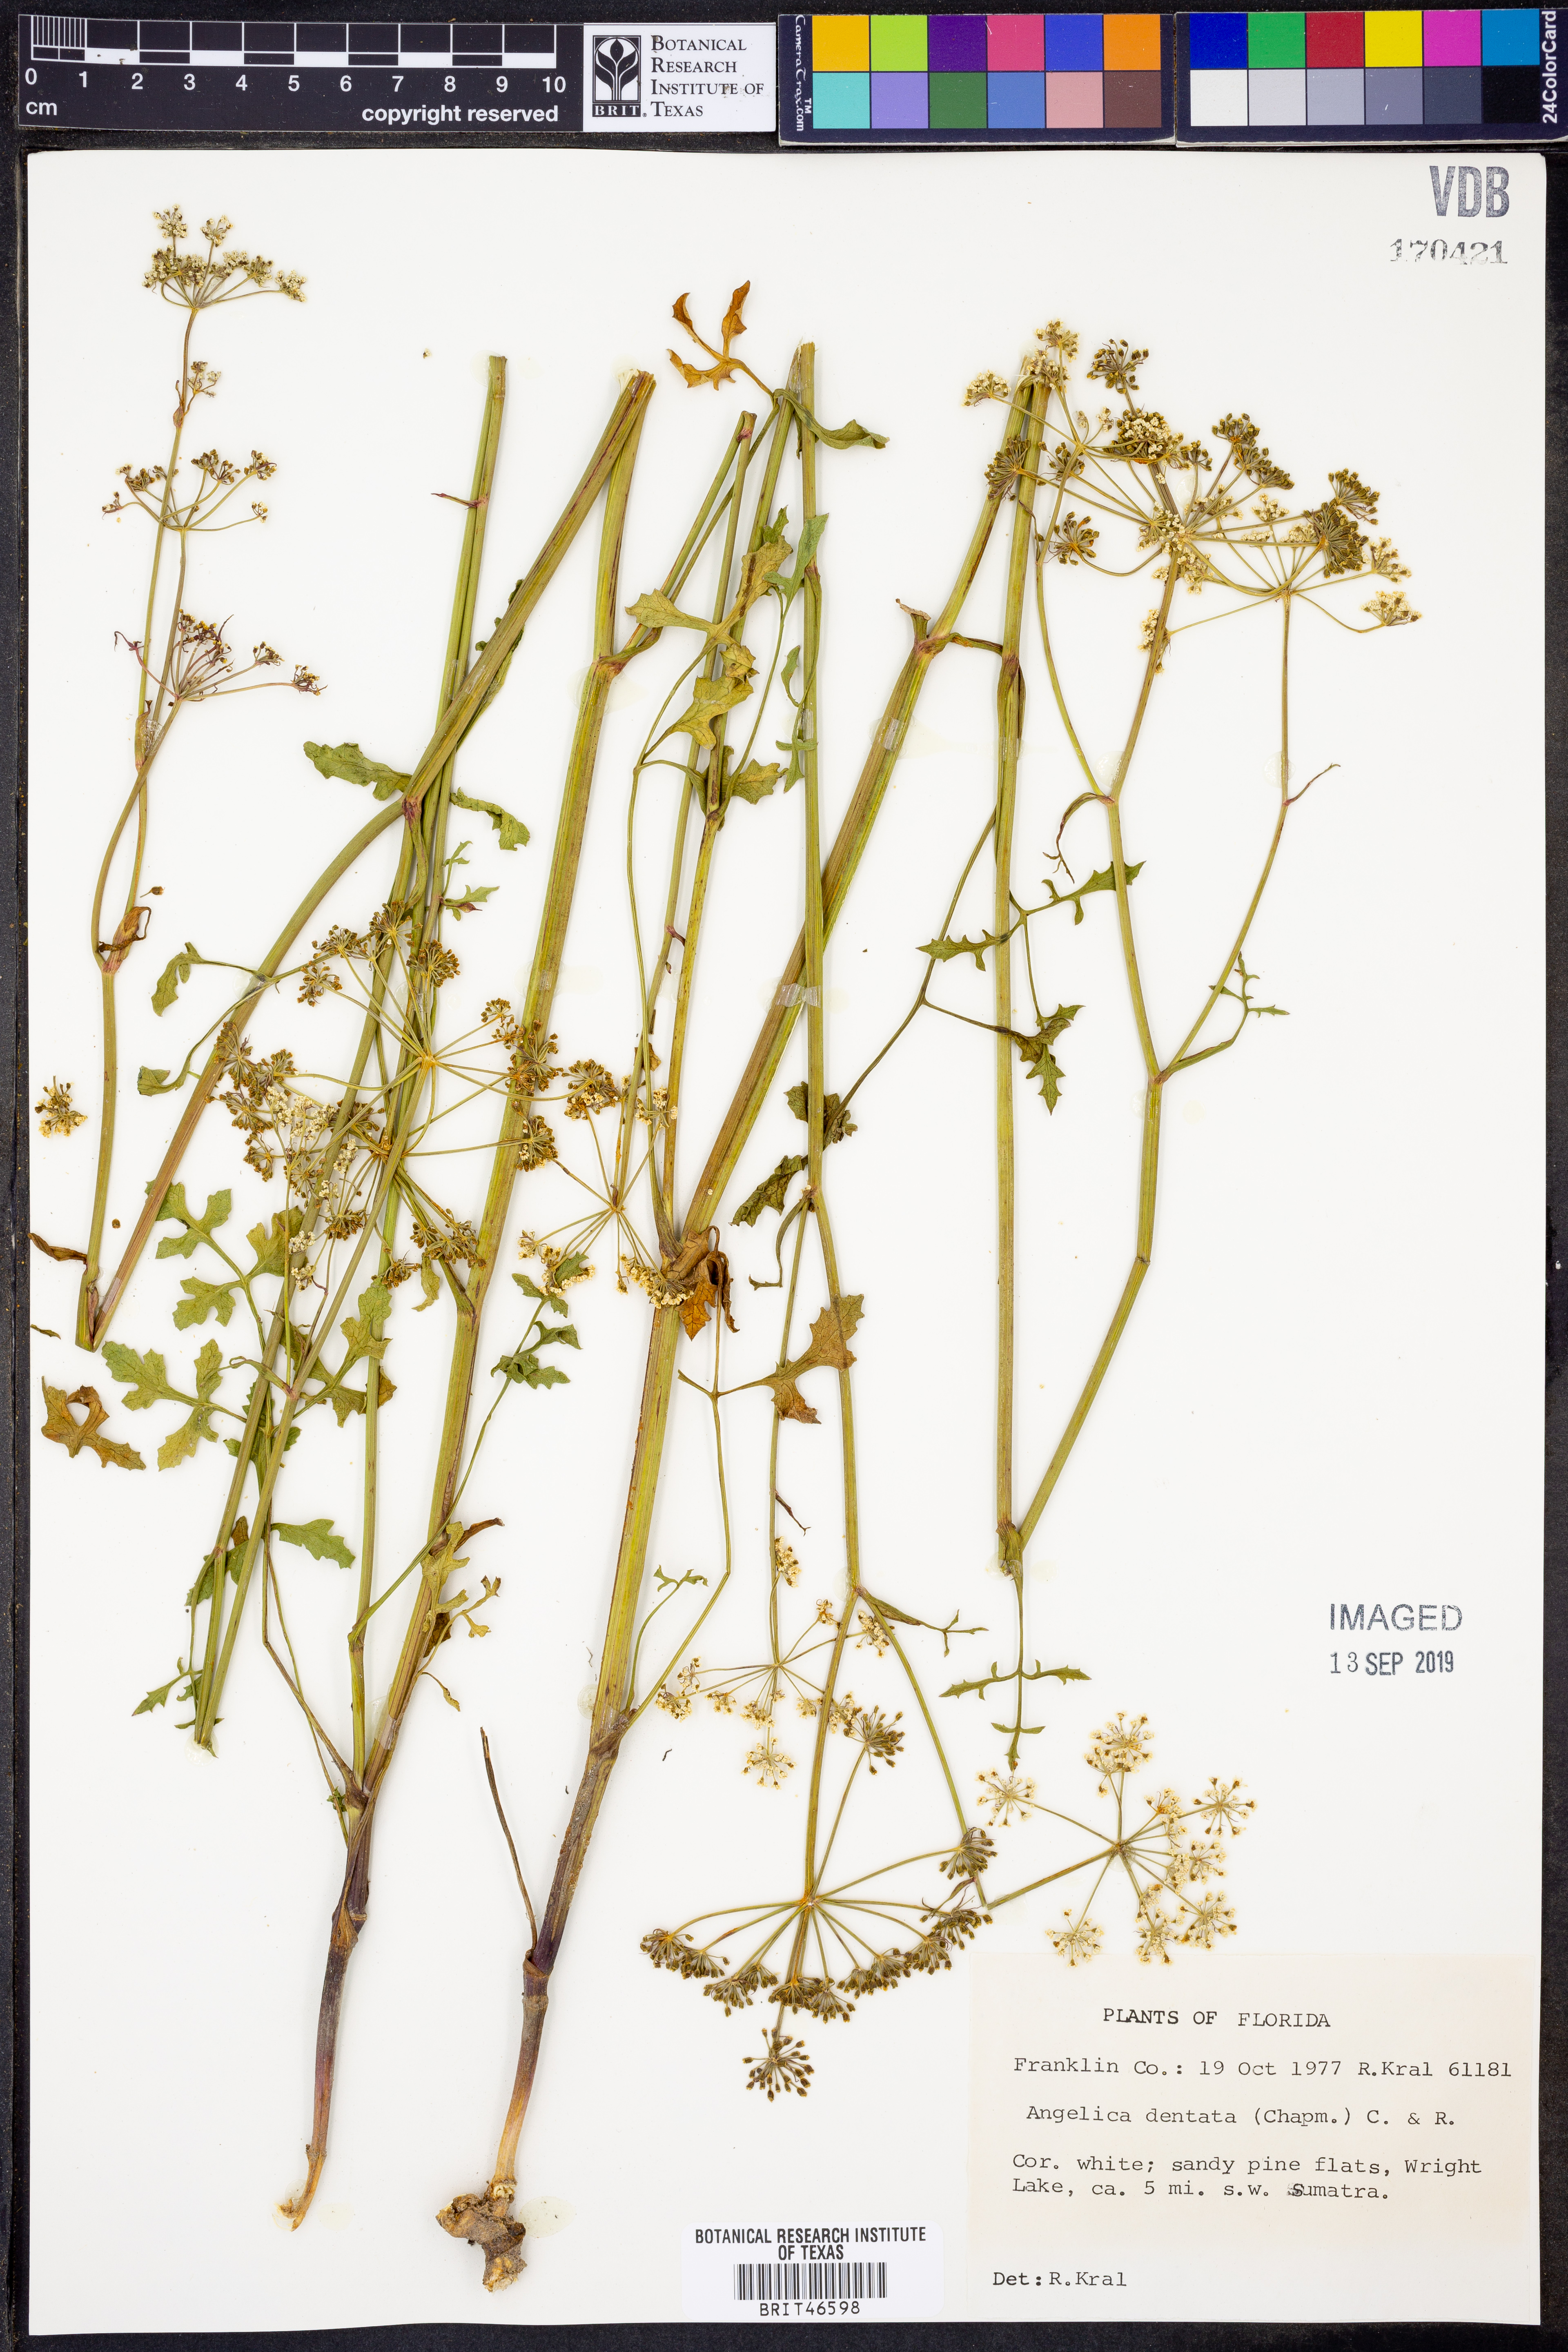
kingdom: Plantae
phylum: Tracheophyta
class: Magnoliopsida
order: Apiales
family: Apiaceae
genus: Angelica
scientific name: Angelica venenosa
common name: Hairy angelica
